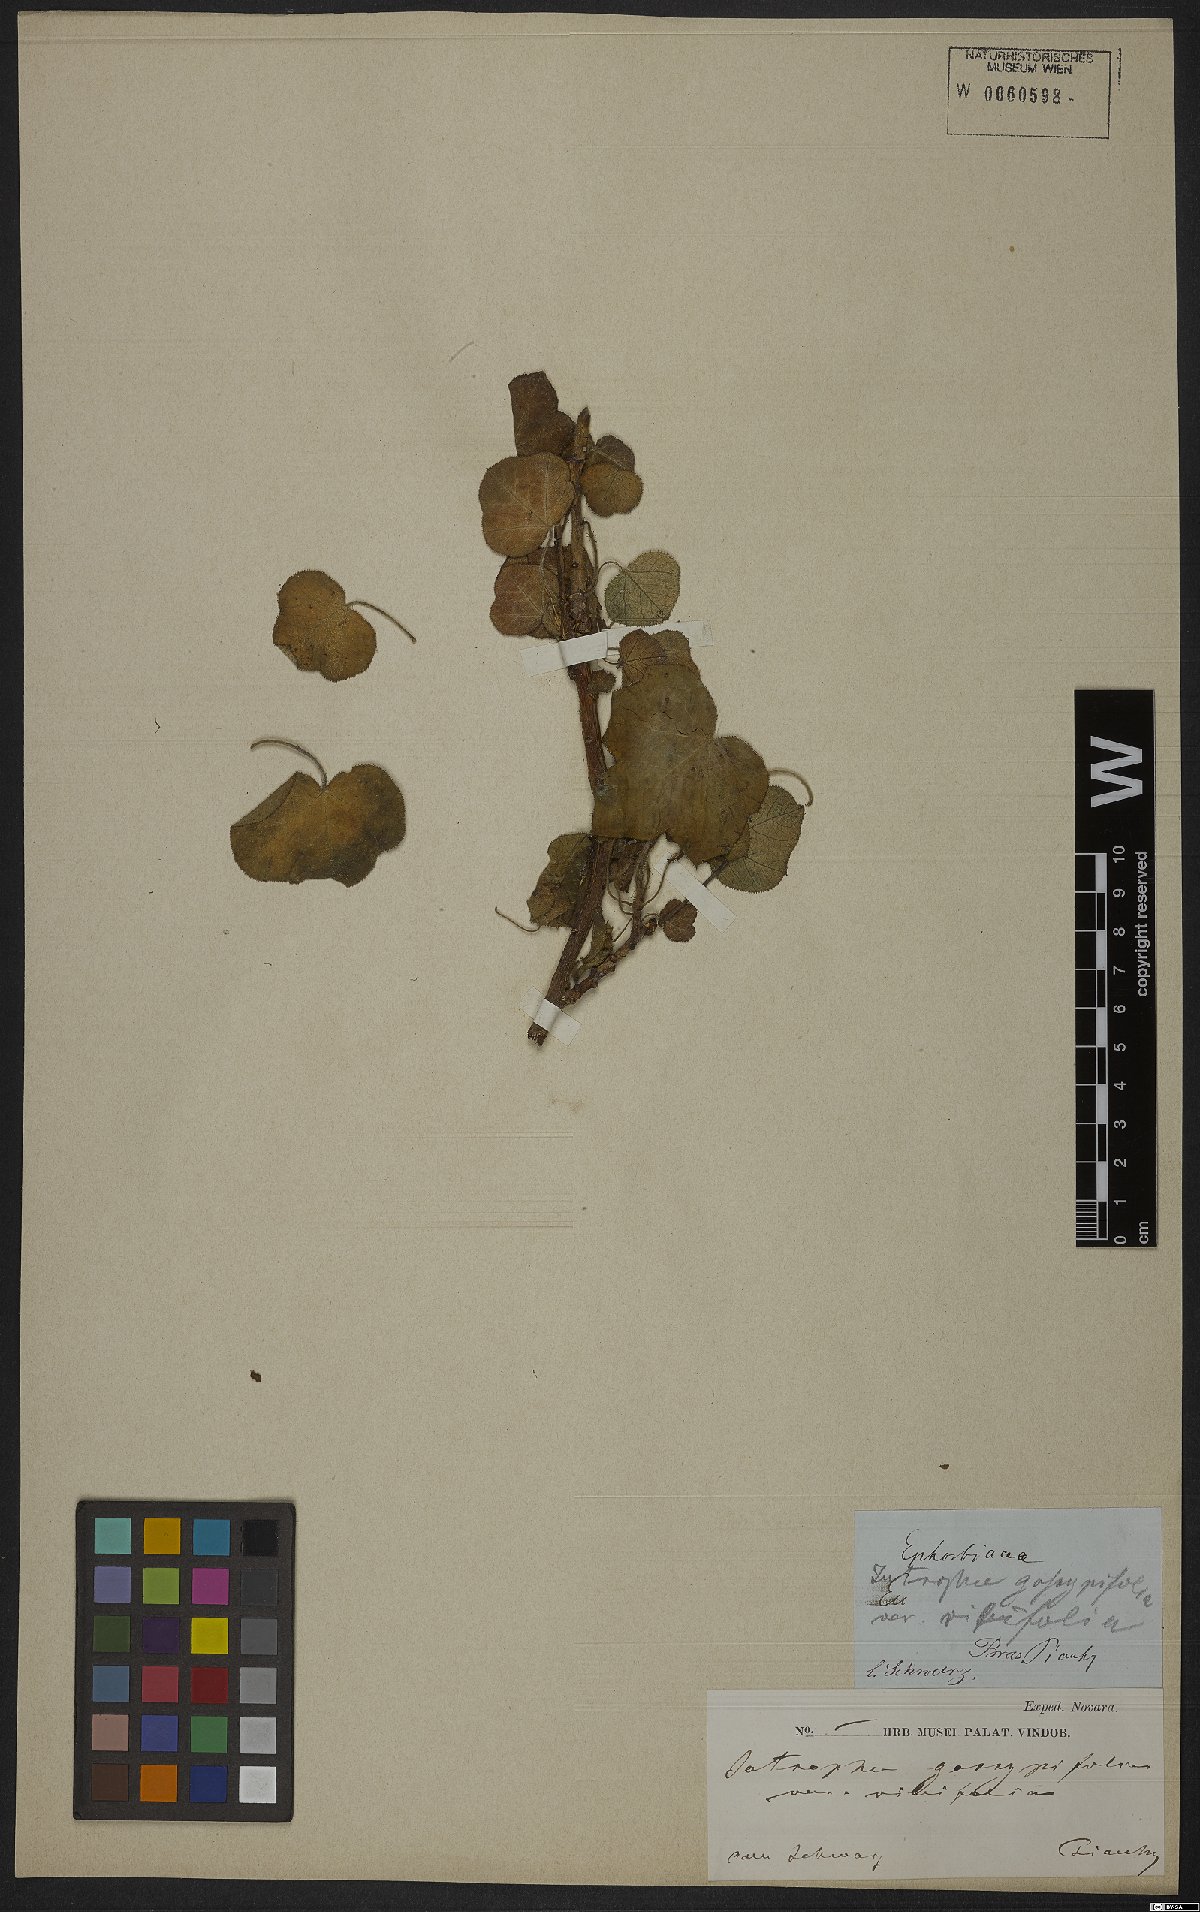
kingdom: Plantae
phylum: Tracheophyta
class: Magnoliopsida
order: Malpighiales
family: Euphorbiaceae
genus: Jatropha
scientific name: Jatropha gossypiifolia
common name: Bellyache bush
